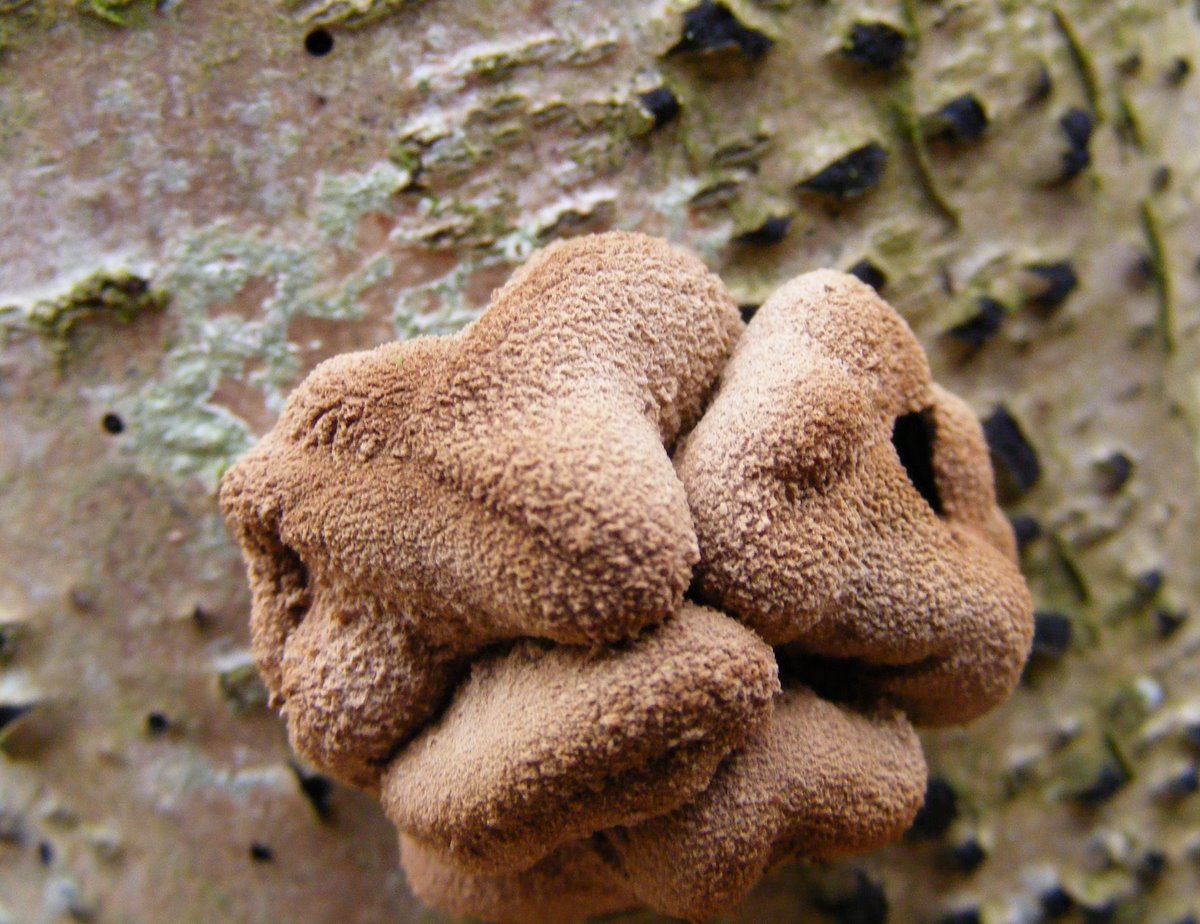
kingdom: Fungi
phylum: Ascomycota
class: Leotiomycetes
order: Helotiales
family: Cenangiaceae
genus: Encoelia
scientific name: Encoelia furfuracea
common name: hassel-læderskive
